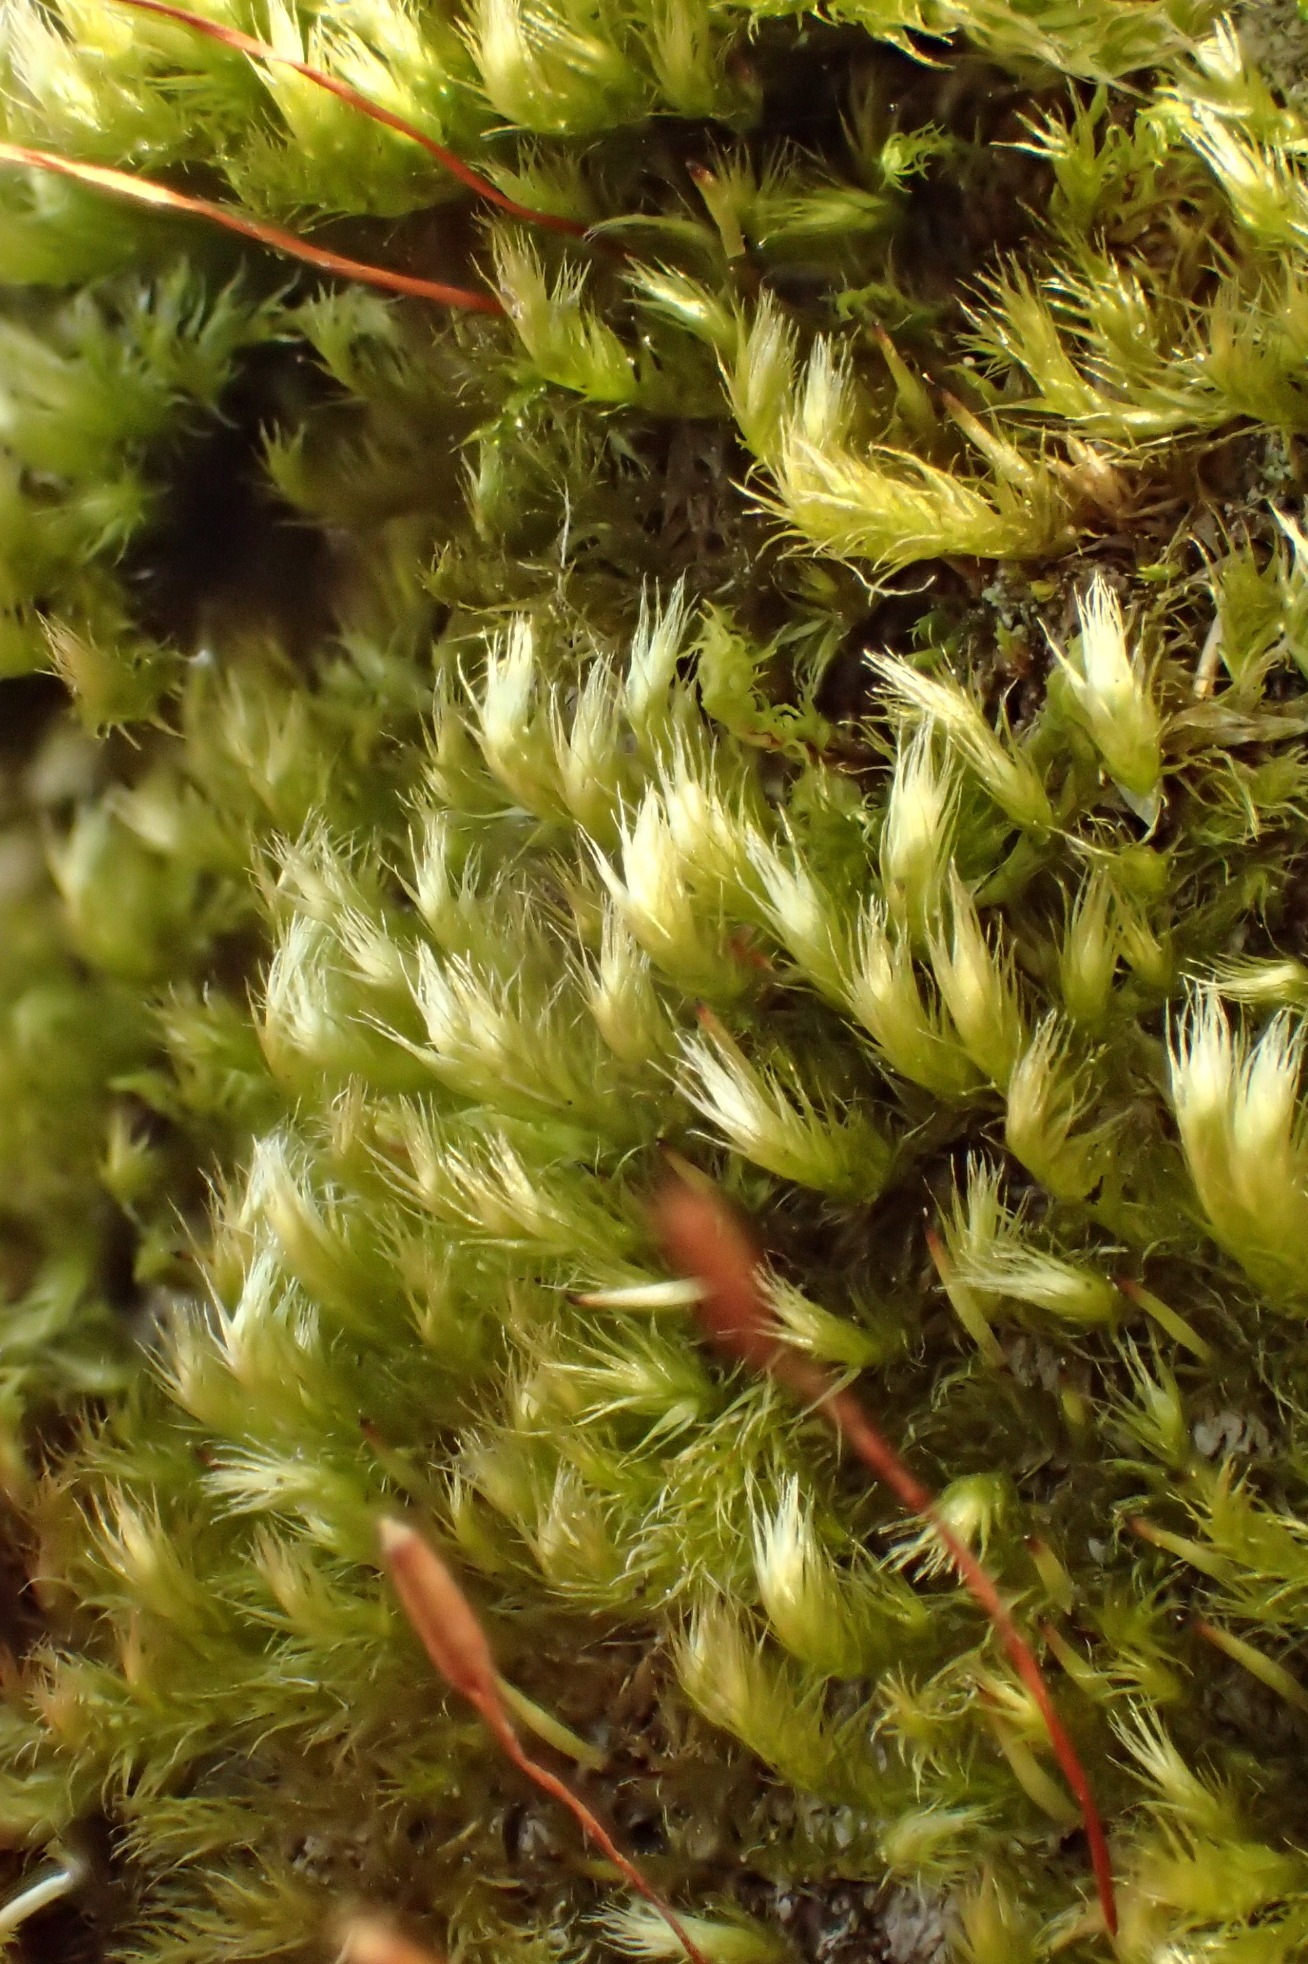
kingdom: Plantae
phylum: Bryophyta
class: Bryopsida
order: Hypnales
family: Pylaisiaceae
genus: Pylaisia
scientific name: Pylaisia polyantha
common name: Mangefrugtet aspemos
